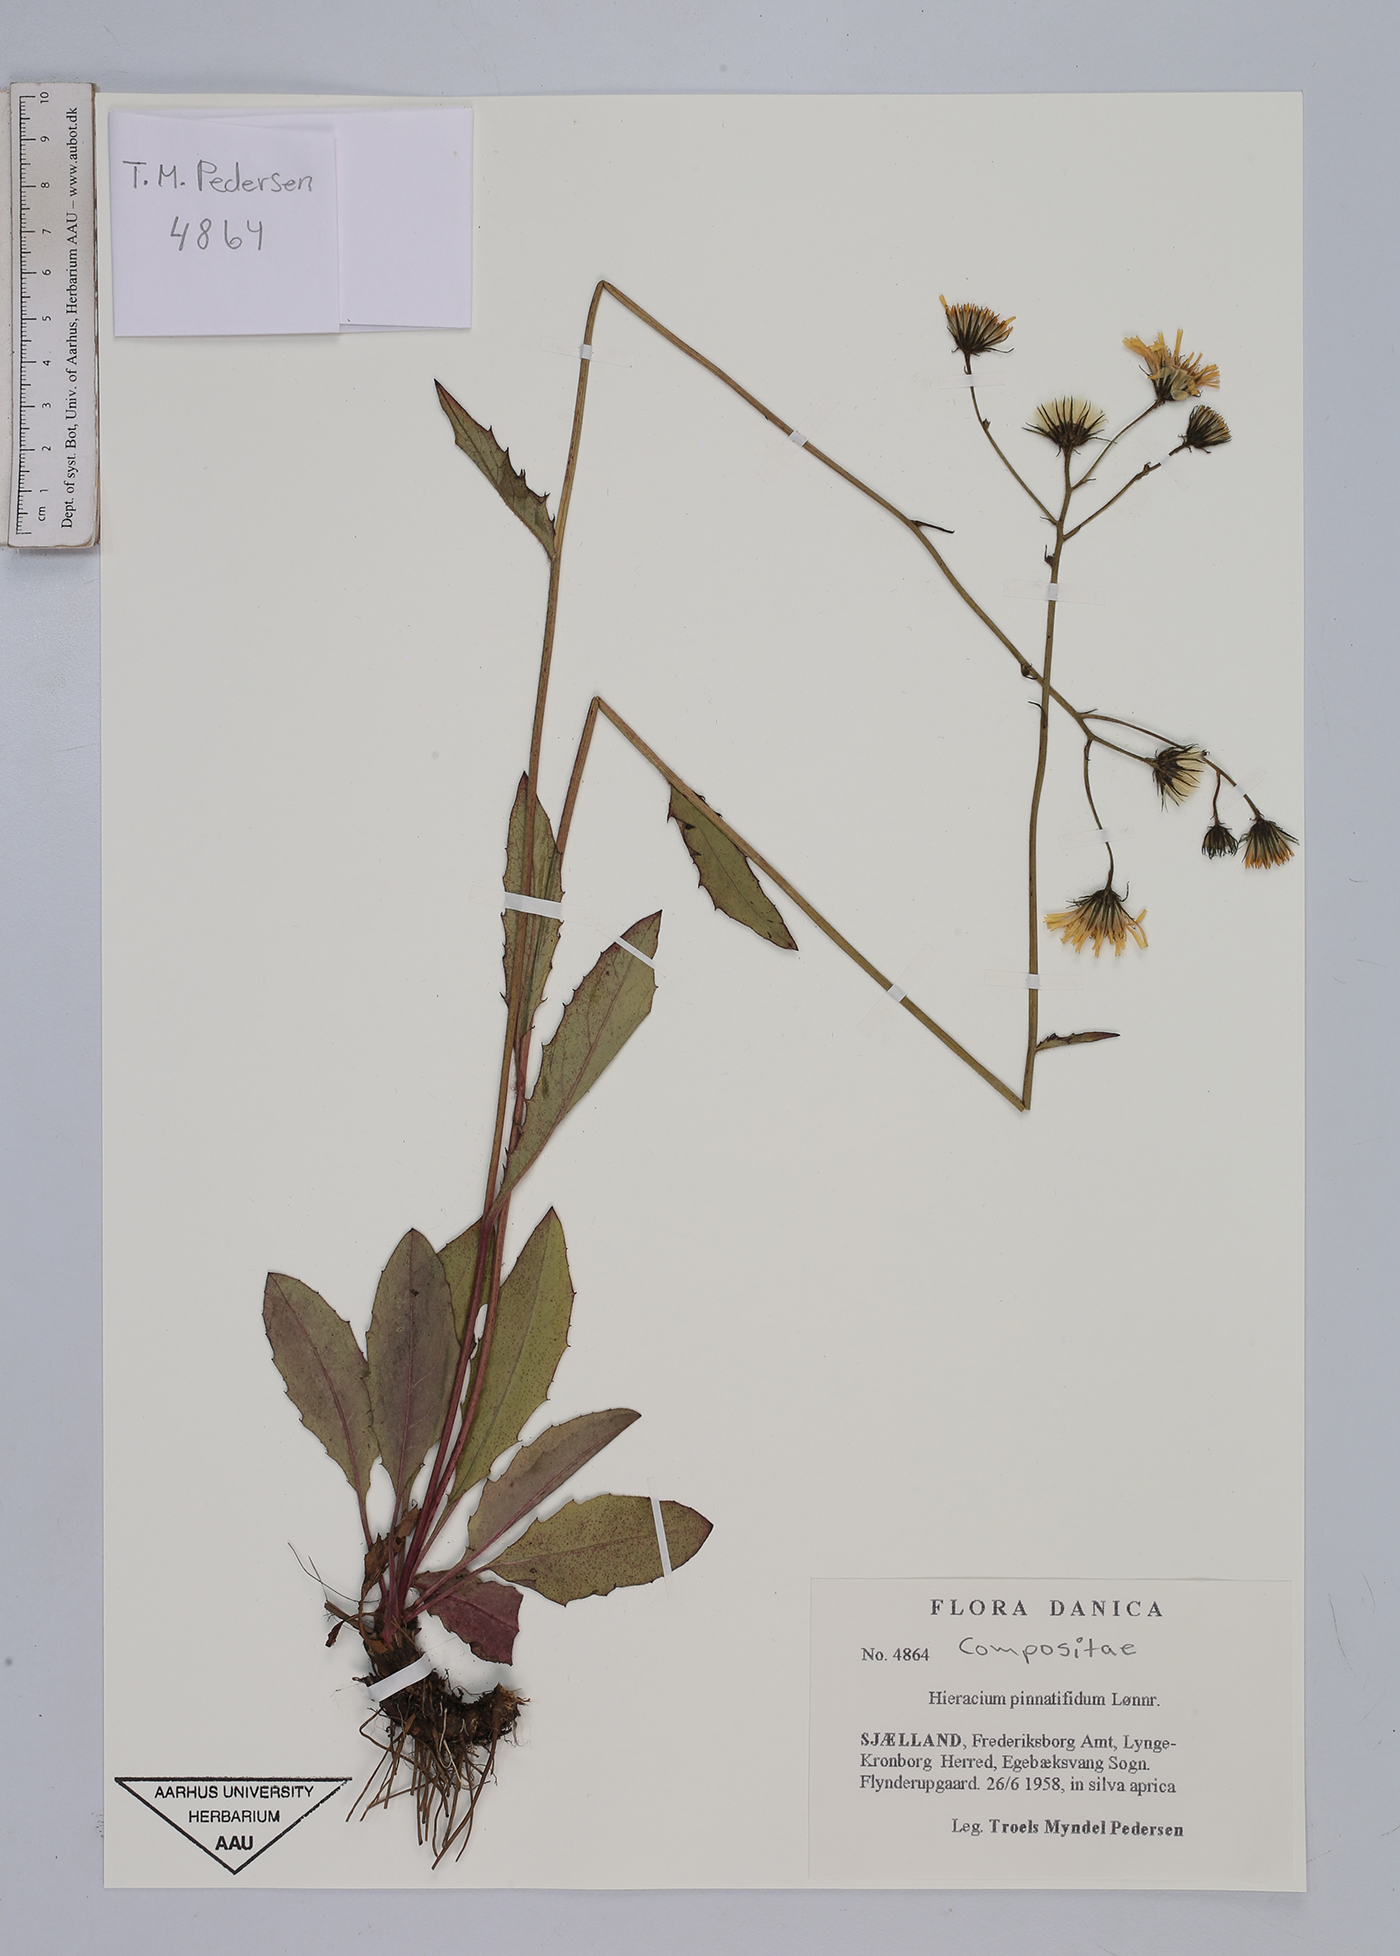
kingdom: Plantae
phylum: Tracheophyta
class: Magnoliopsida
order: Asterales
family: Asteraceae
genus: Hieracium
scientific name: Hieracium lachenalii
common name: Common hawkweed
